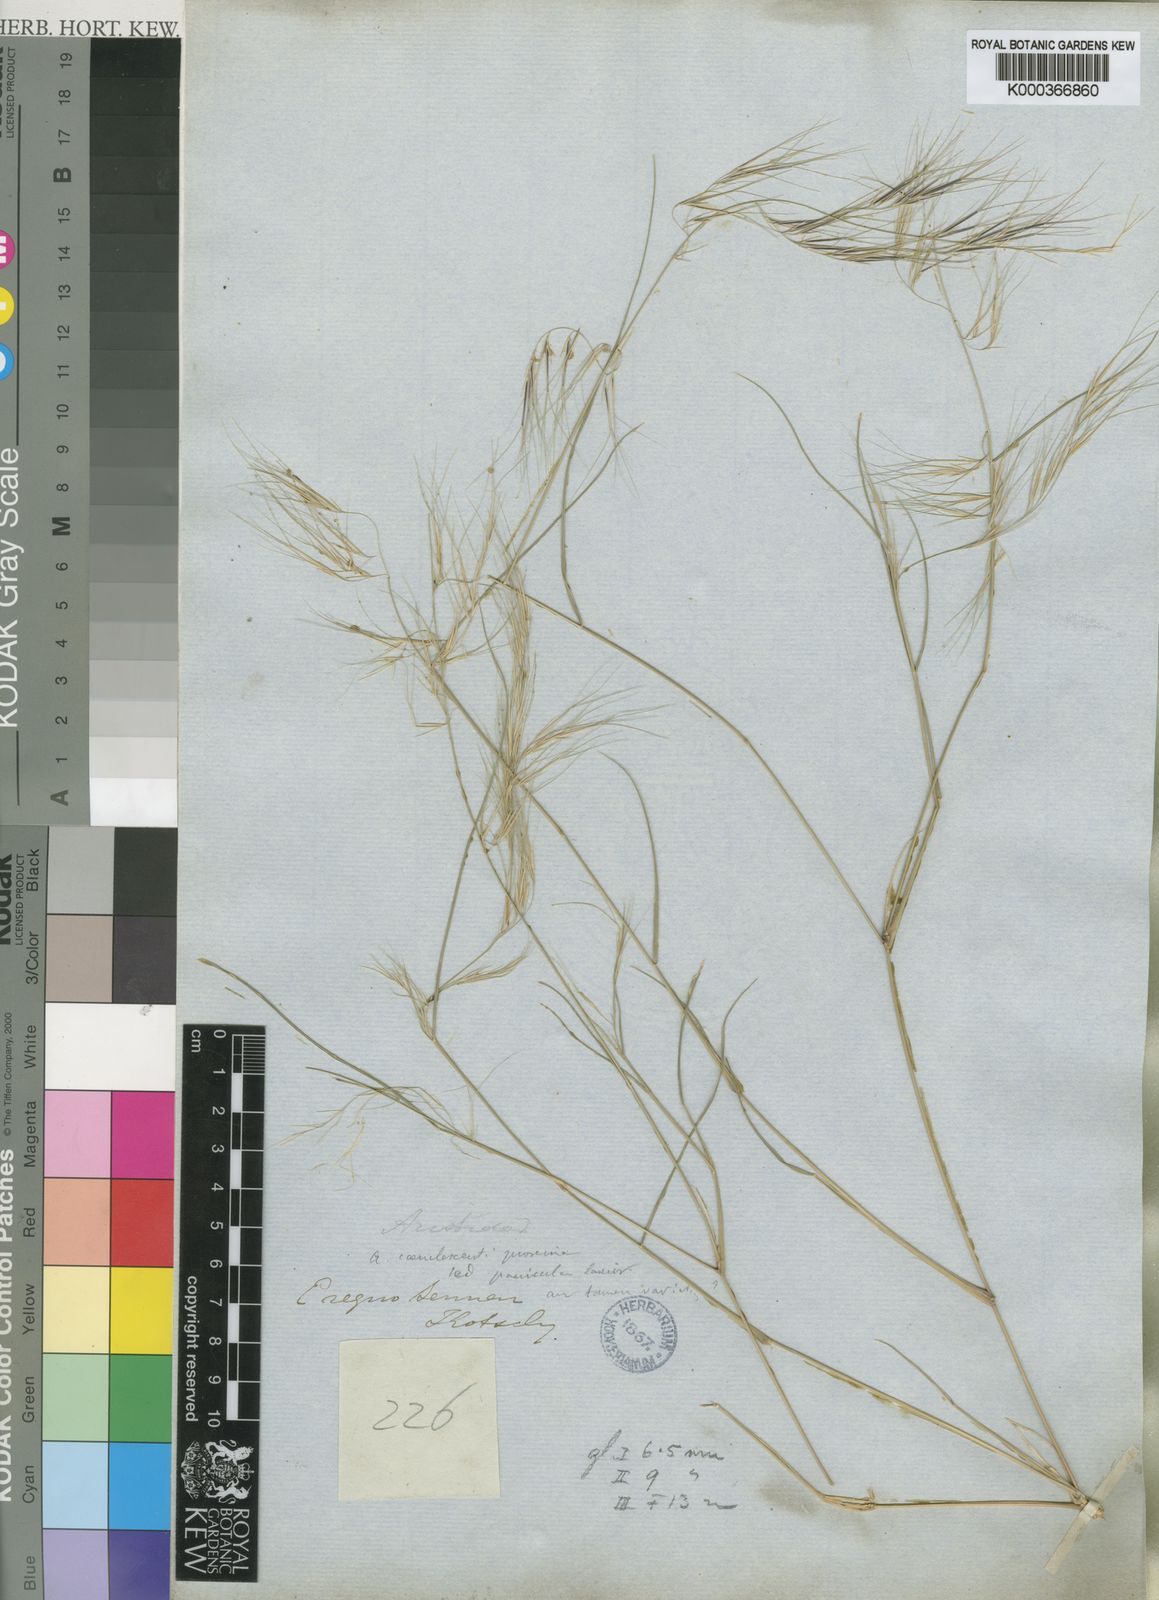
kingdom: Plantae
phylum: Tracheophyta
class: Liliopsida
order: Poales
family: Poaceae
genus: Aristida
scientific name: Aristida adscensionis
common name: Sixweeks threeawn
